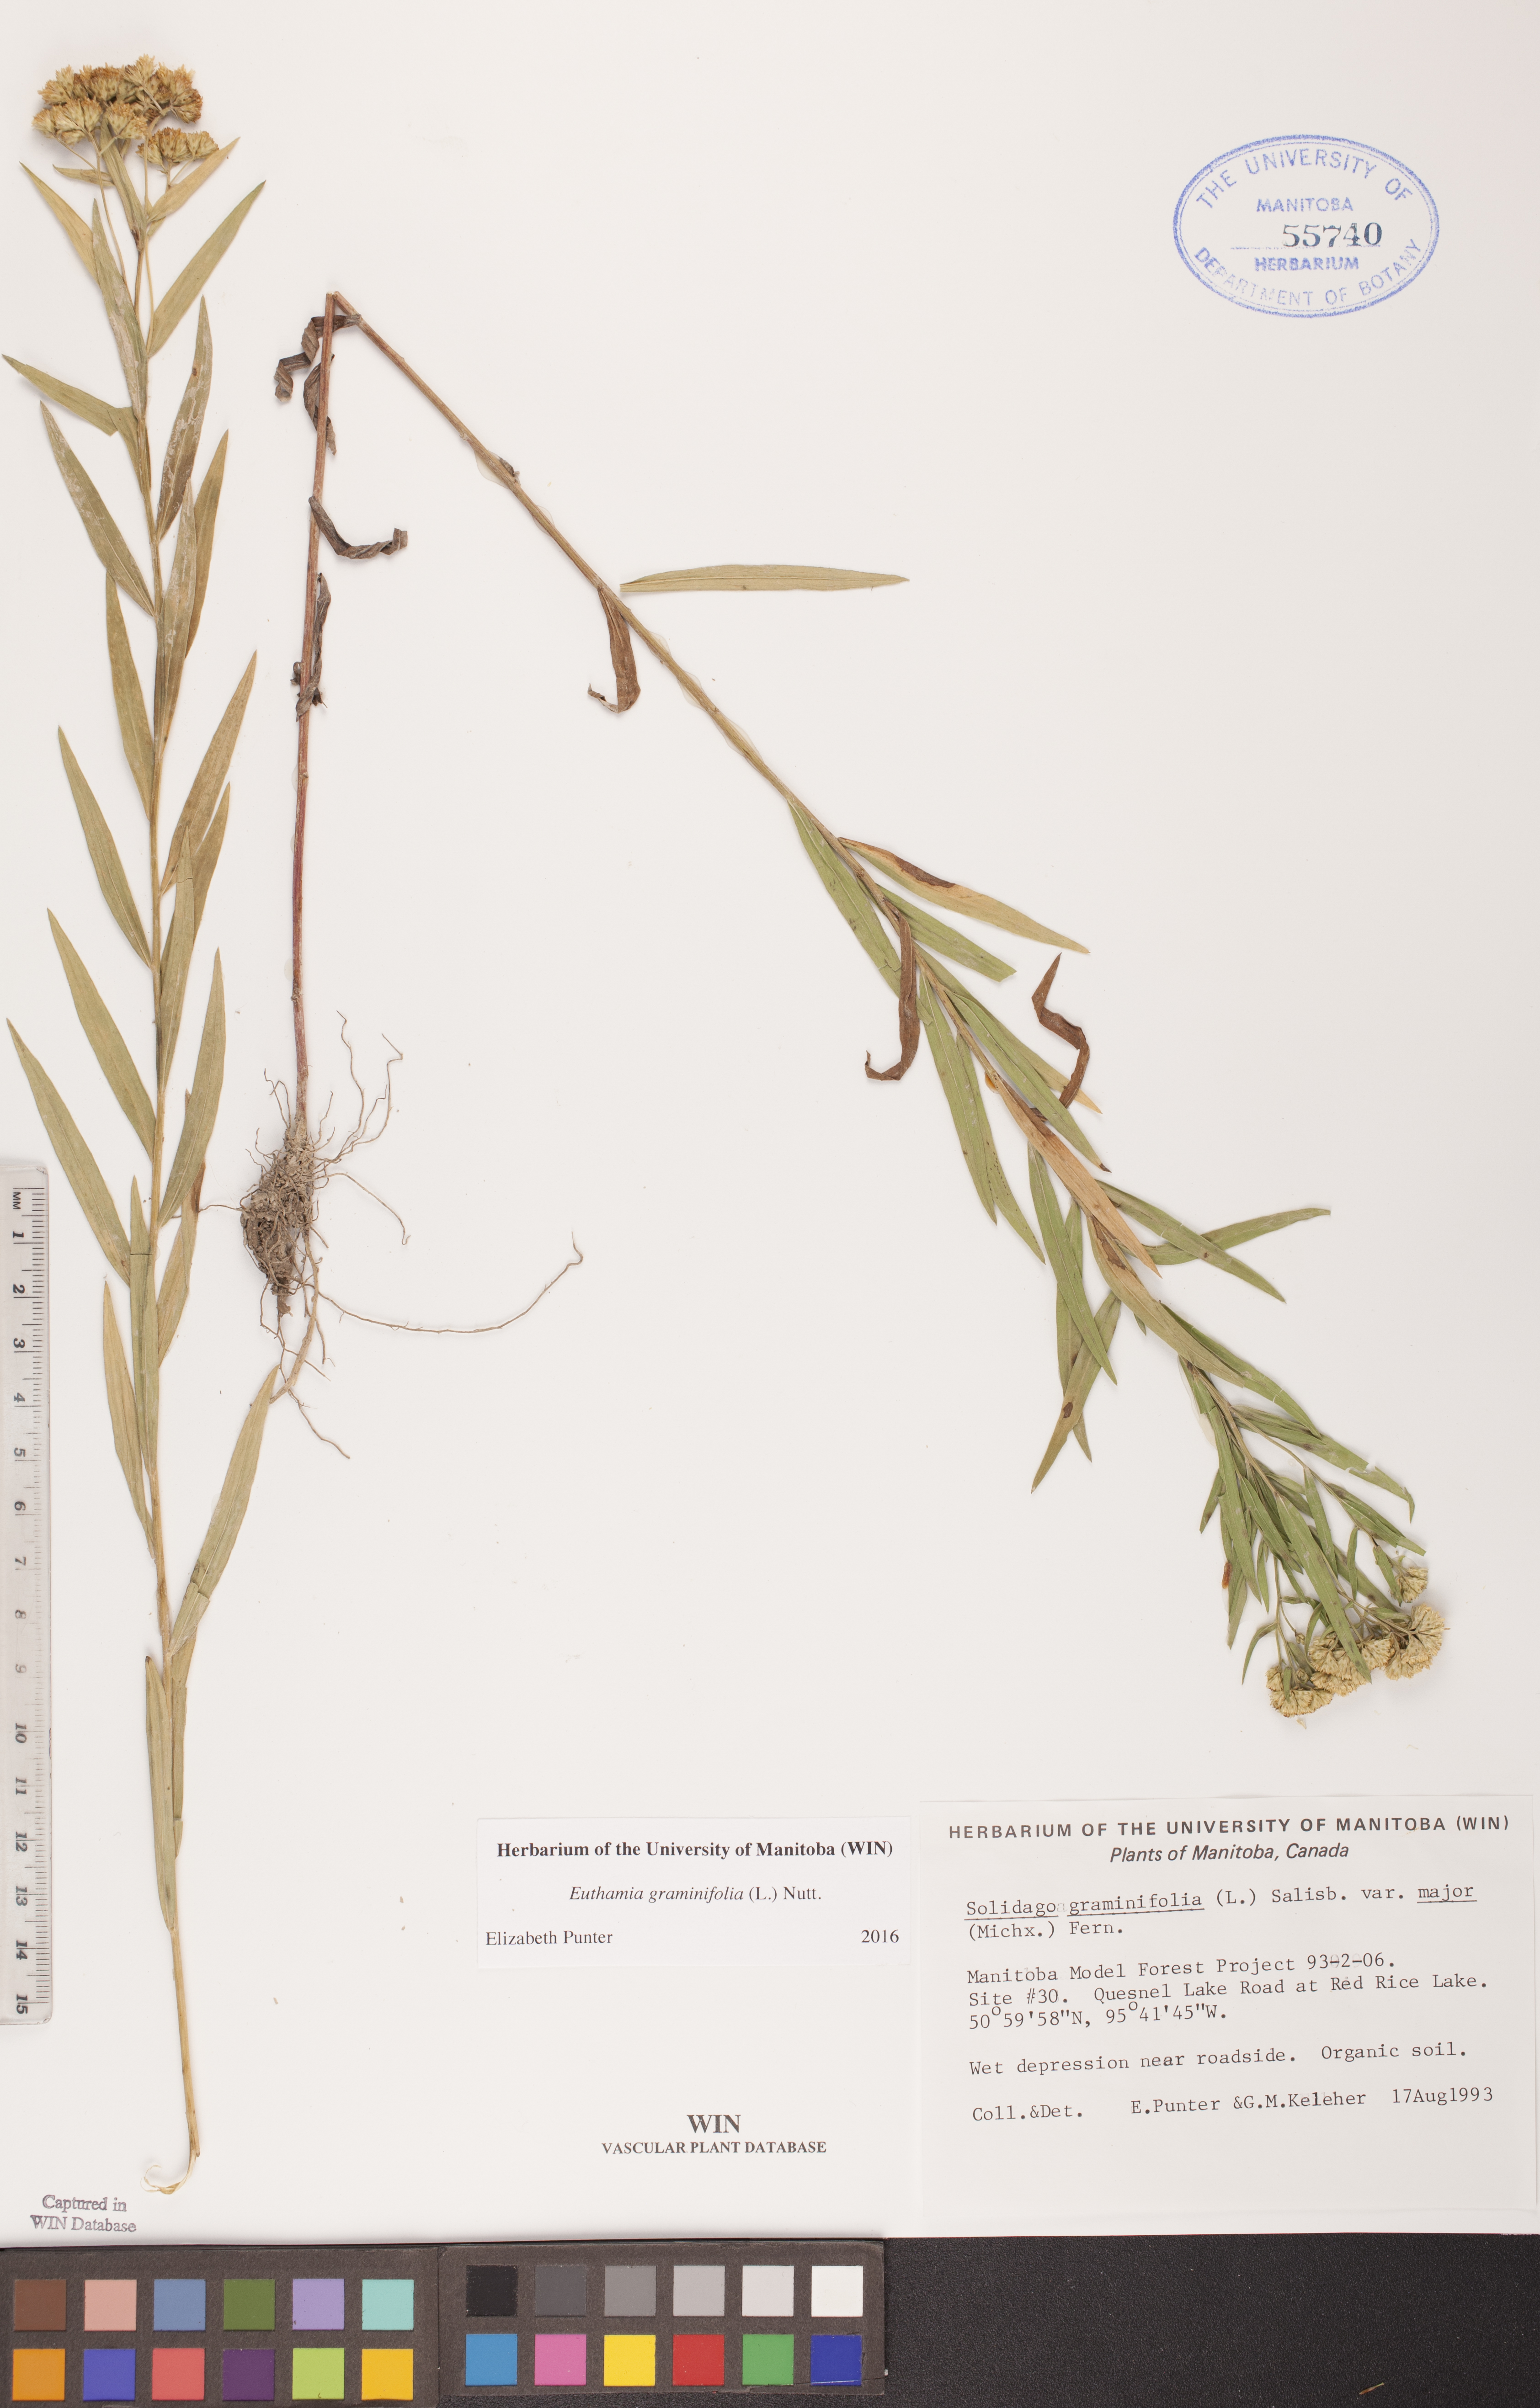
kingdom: Plantae
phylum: Tracheophyta
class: Magnoliopsida
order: Asterales
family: Asteraceae
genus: Euthamia
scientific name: Euthamia graminifolia
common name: Common goldentop
